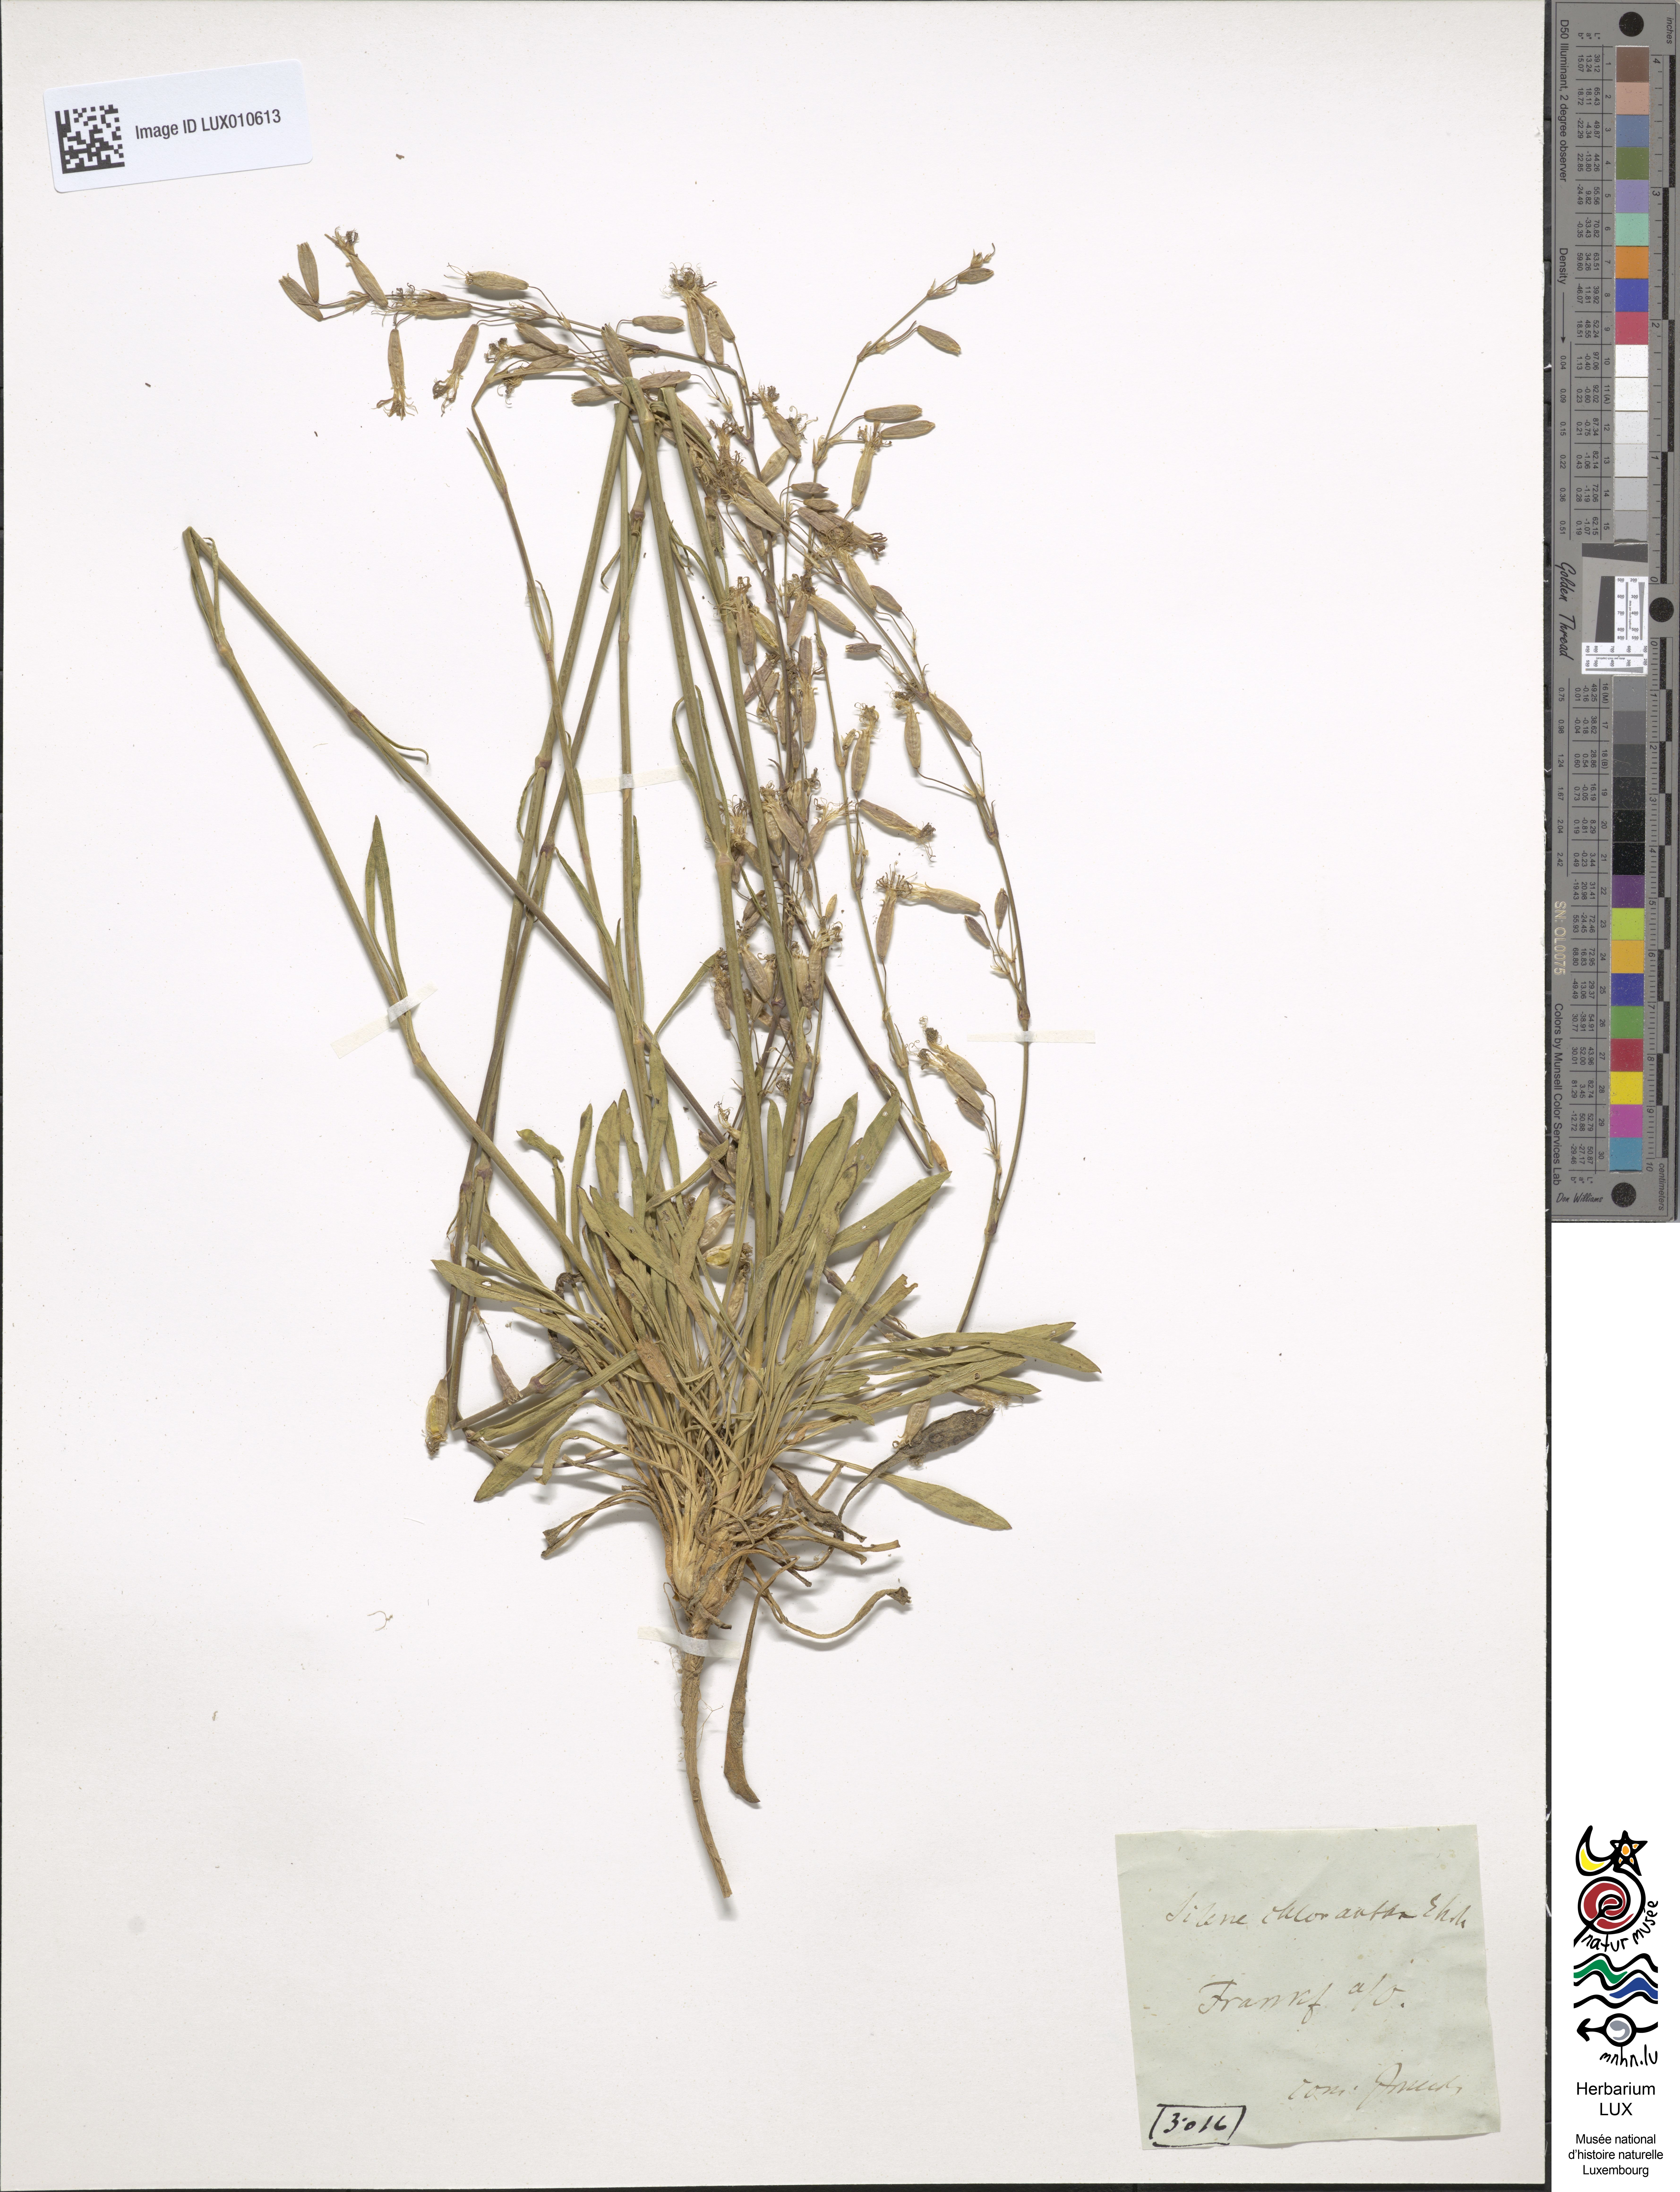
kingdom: Plantae
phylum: Tracheophyta
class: Magnoliopsida
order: Caryophyllales
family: Caryophyllaceae
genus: Silene
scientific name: Silene chlorantha
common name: Yellowgreen catchfly
